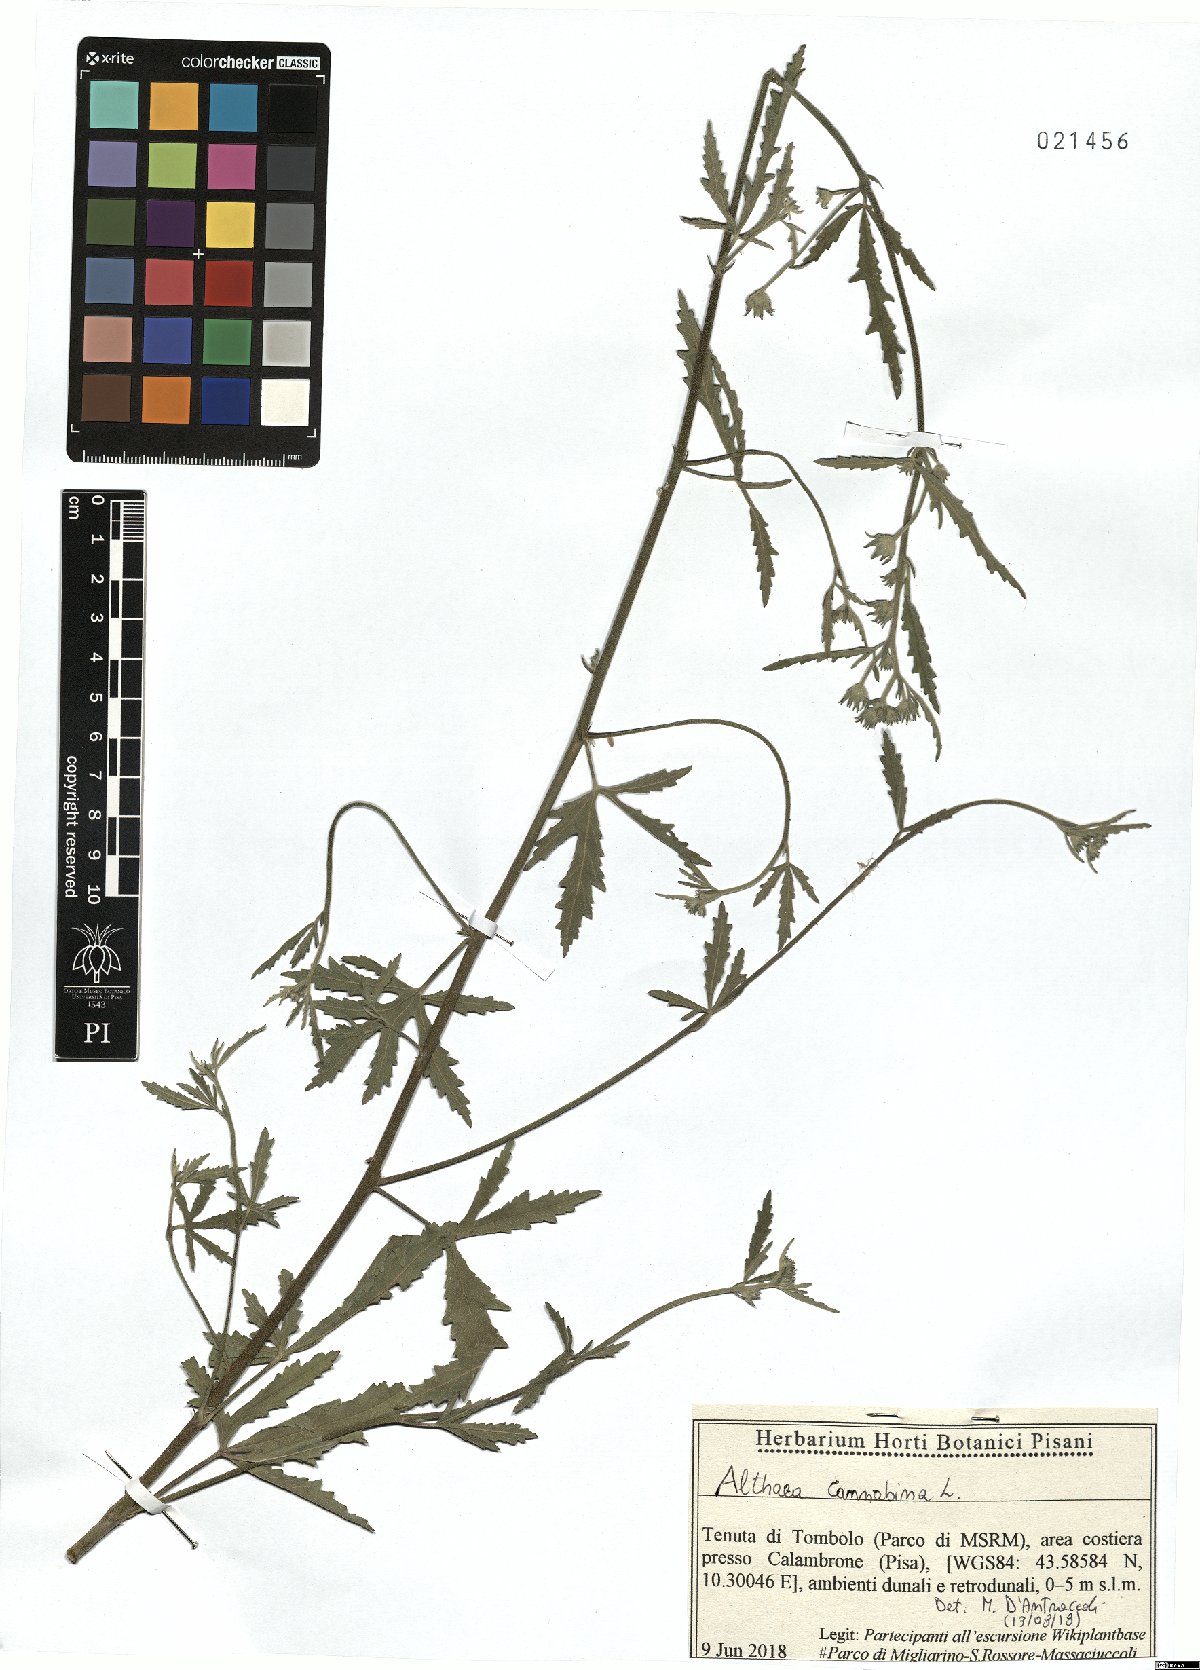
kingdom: Plantae
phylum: Tracheophyta
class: Magnoliopsida
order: Malvales
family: Malvaceae
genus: Althaea
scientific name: Althaea cannabina
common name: Palm-leaf marshmallow
